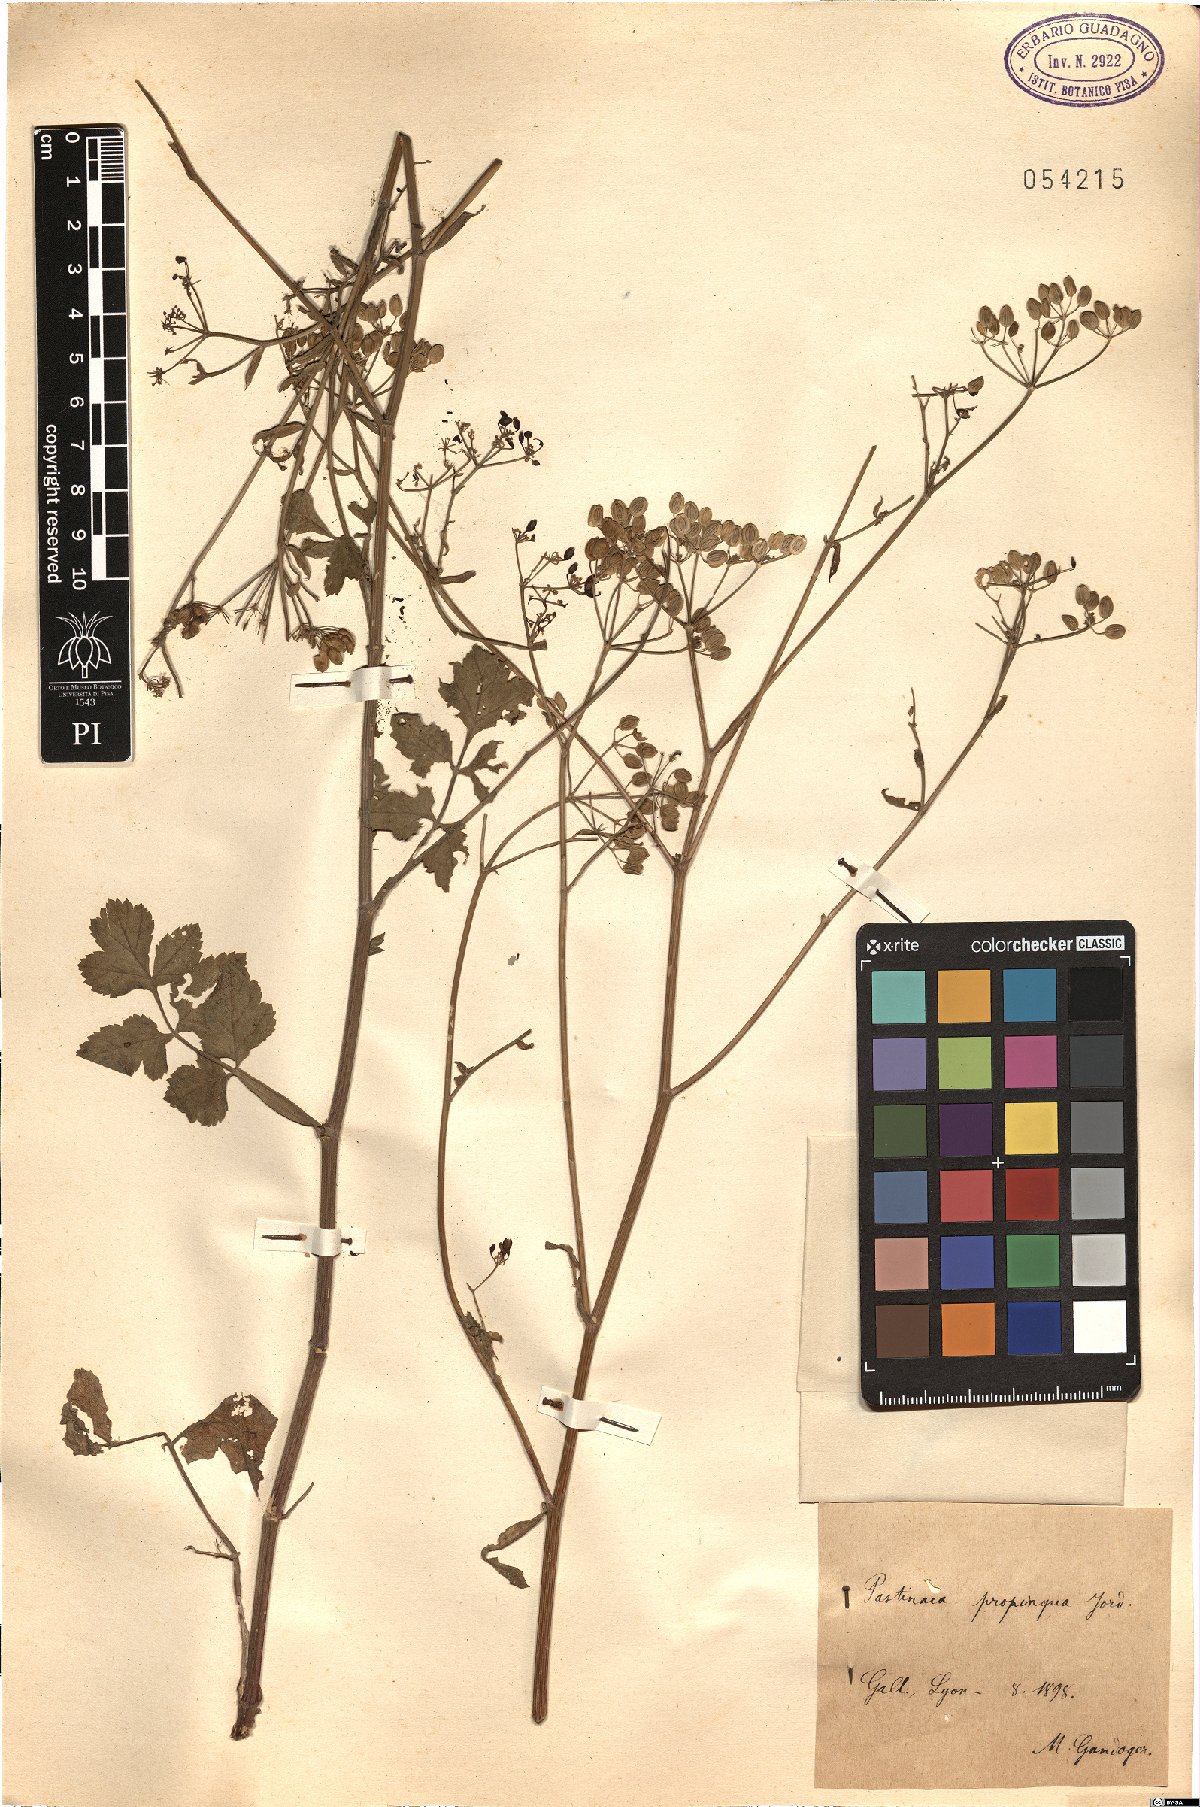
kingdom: Plantae
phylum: Tracheophyta
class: Magnoliopsida
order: Apiales
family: Apiaceae
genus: Pastinaca
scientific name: Pastinaca sativa
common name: Wild parsnip
